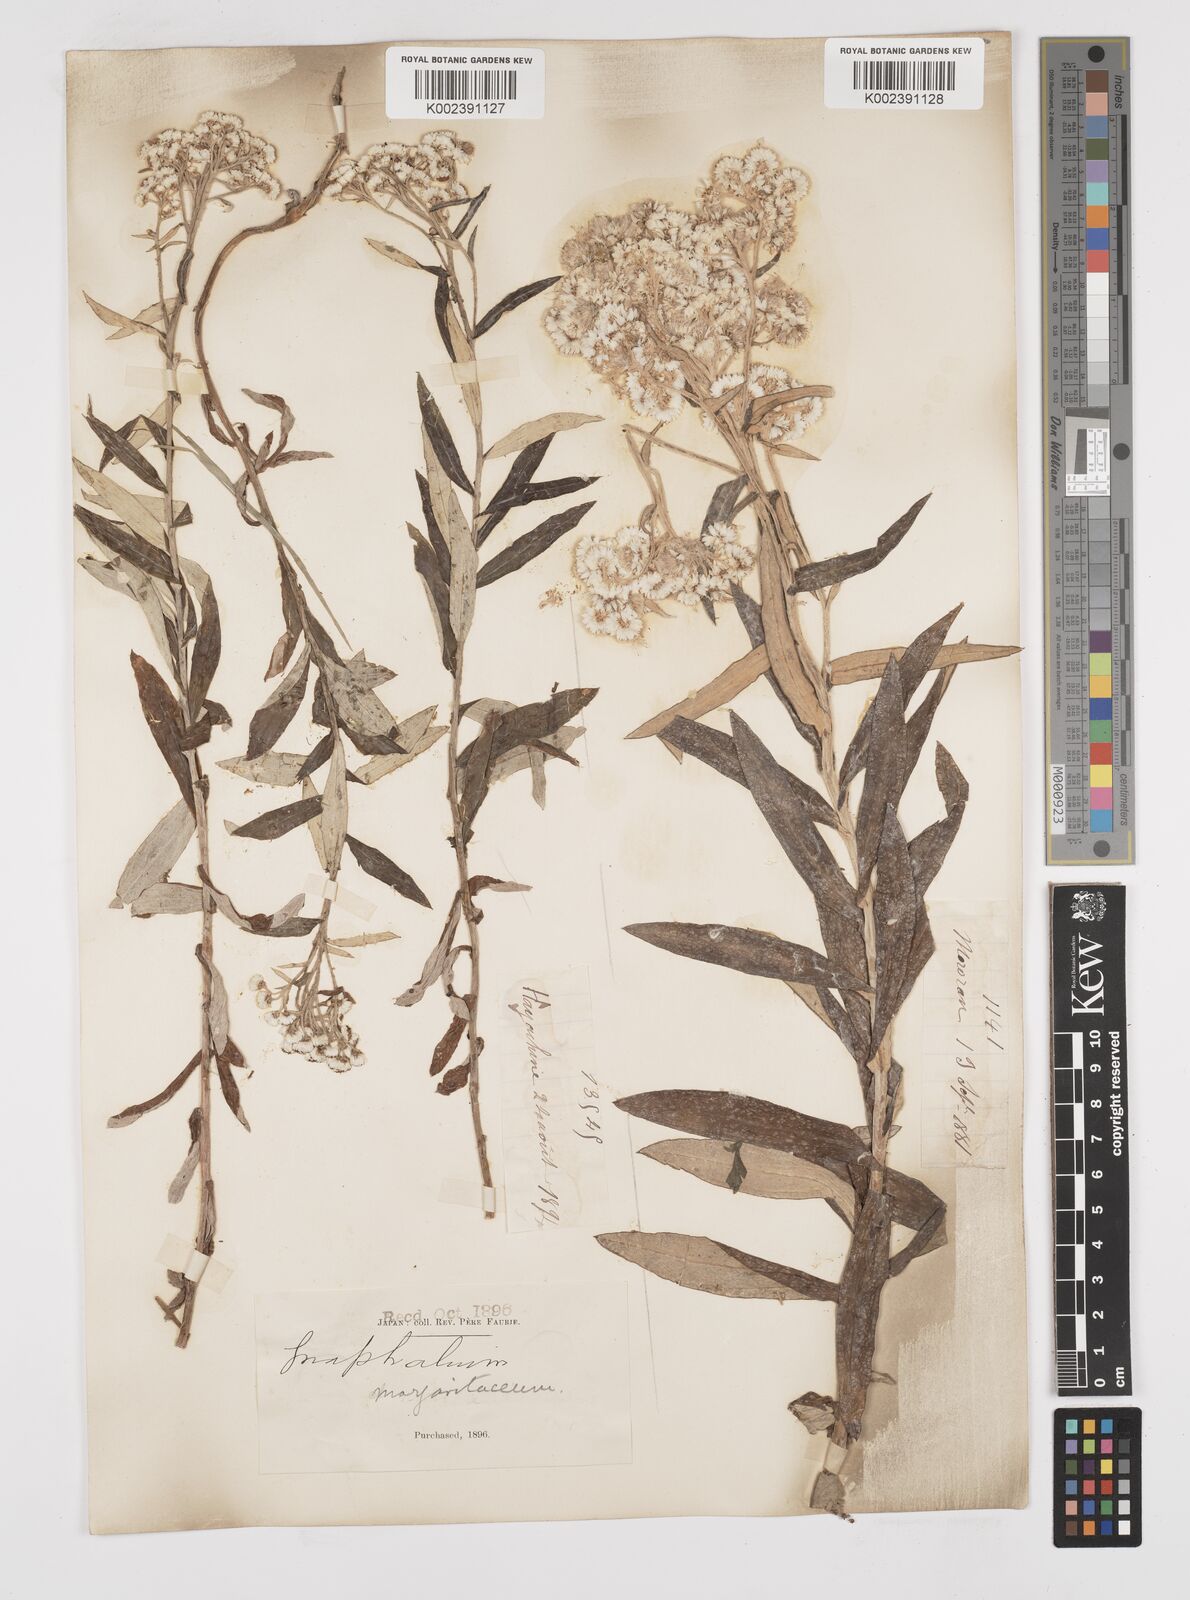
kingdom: Plantae
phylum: Tracheophyta
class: Magnoliopsida
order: Asterales
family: Asteraceae
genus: Anaphalis
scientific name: Anaphalis margaritacea
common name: Pearly everlasting
